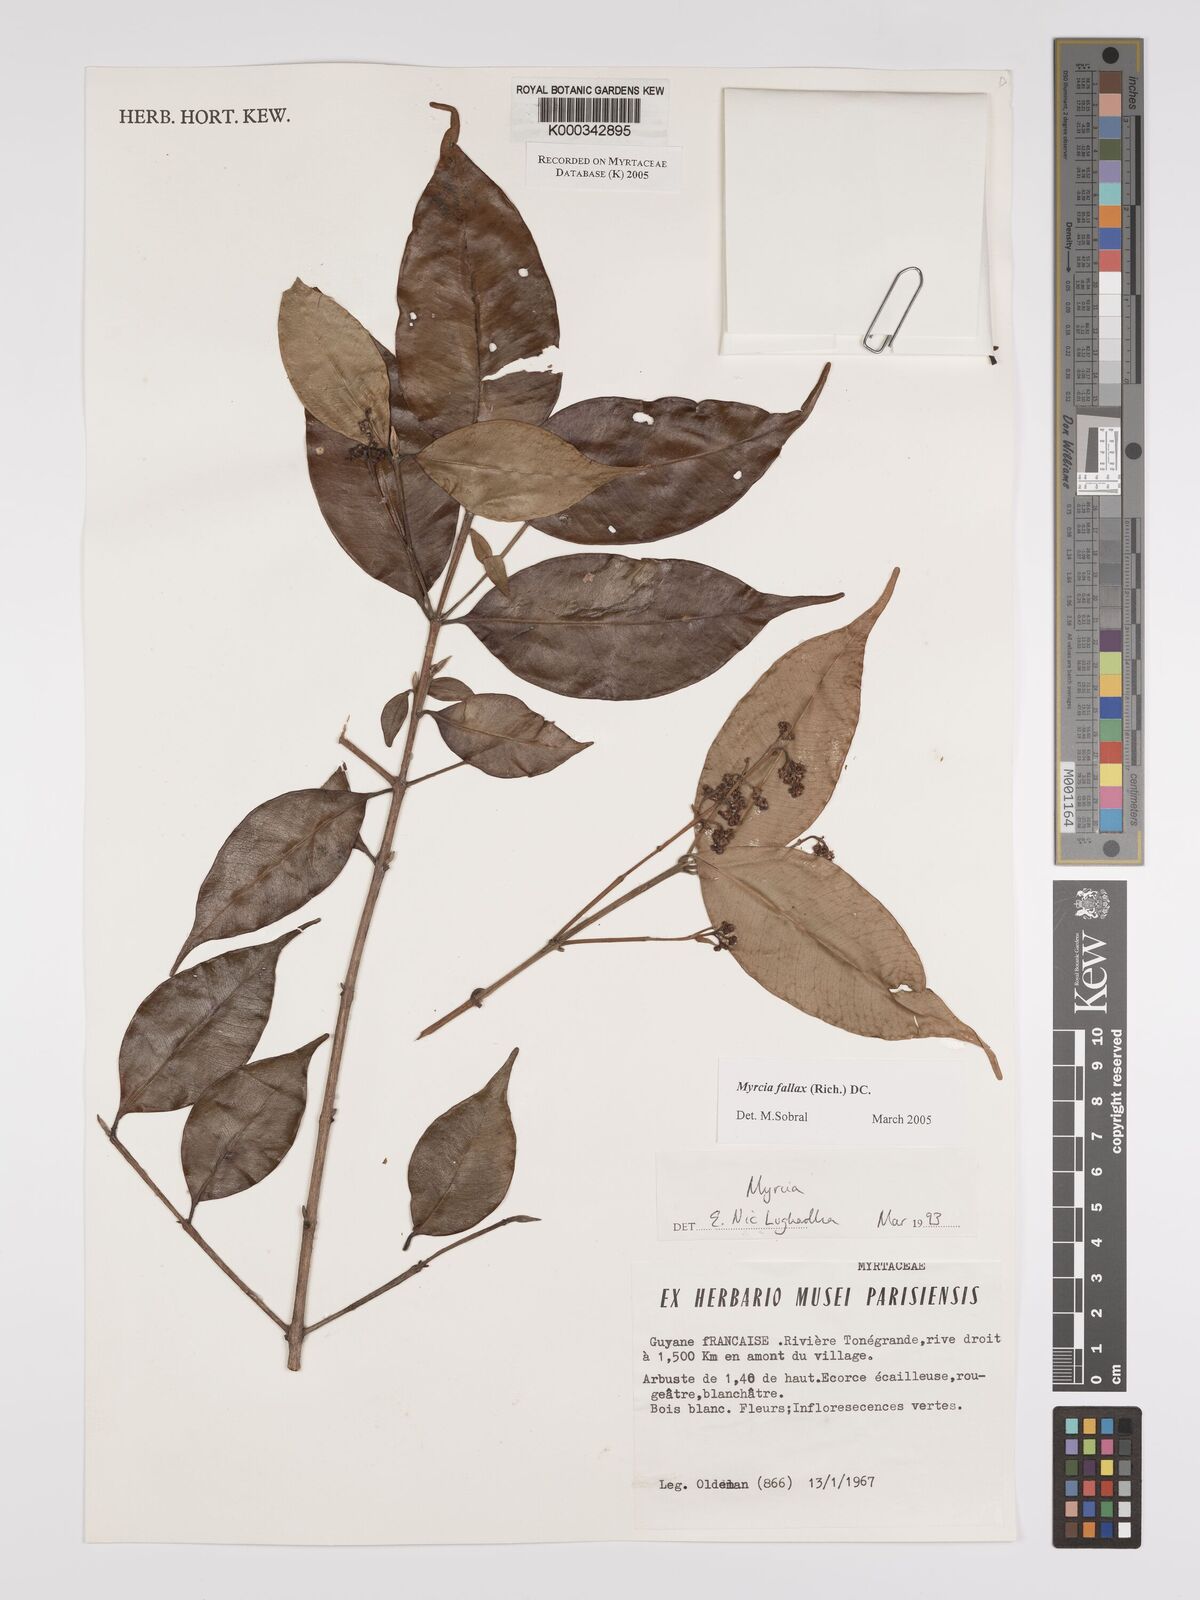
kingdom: Plantae
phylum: Tracheophyta
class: Magnoliopsida
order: Myrtales
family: Myrtaceae
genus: Myrcia
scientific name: Myrcia splendens
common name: Surinam cherry
